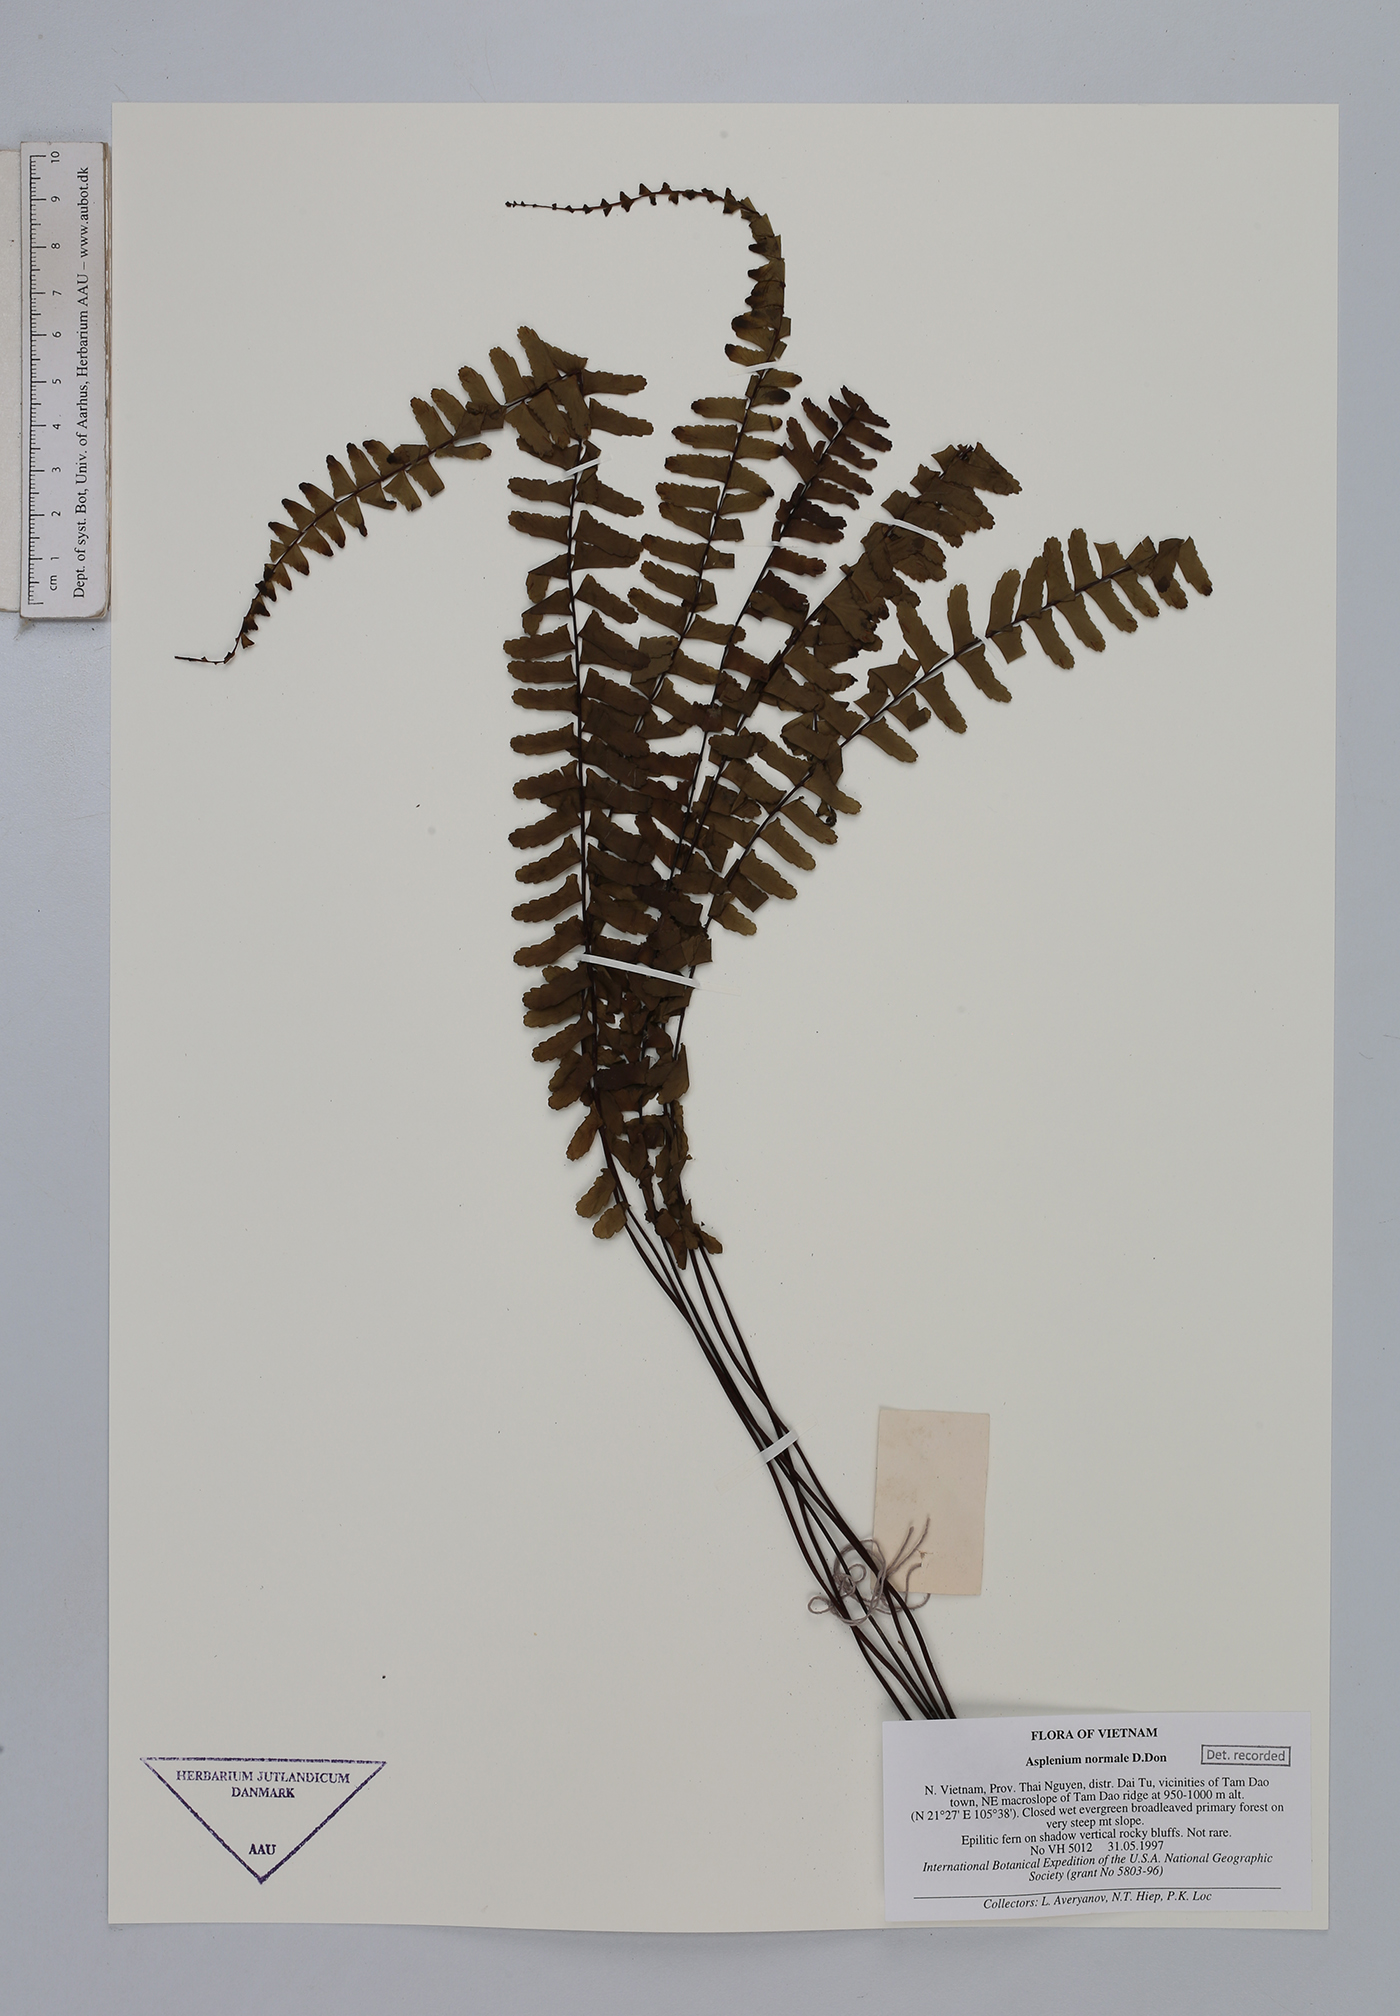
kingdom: Plantae
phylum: Tracheophyta
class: Polypodiopsida
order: Polypodiales
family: Aspleniaceae
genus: Asplenium
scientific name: Asplenium normale
